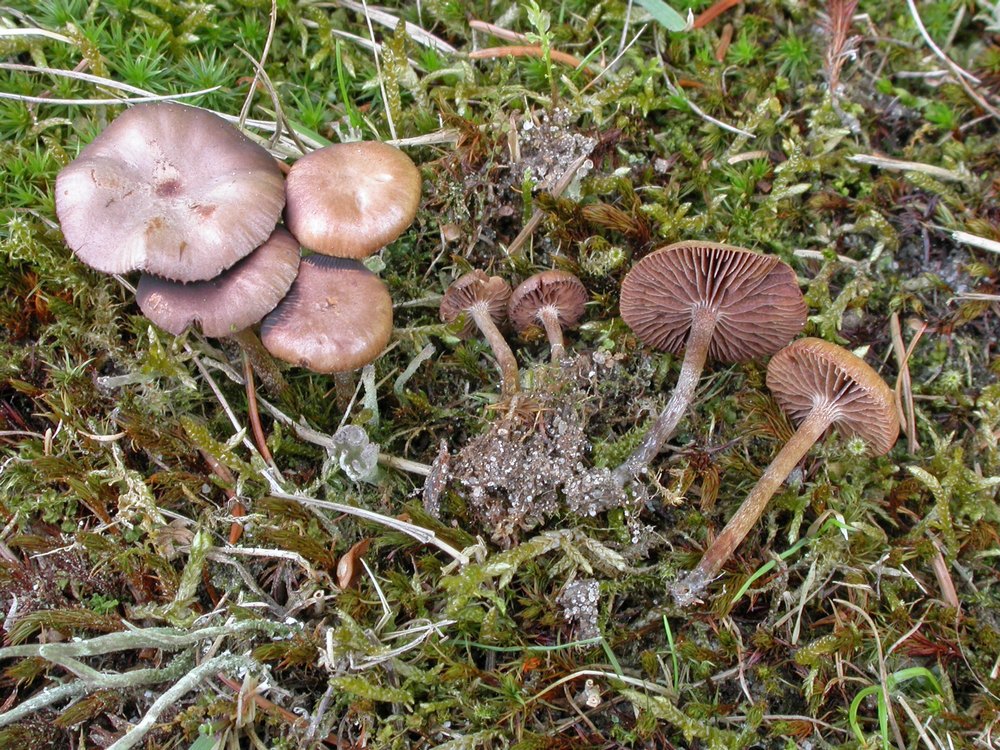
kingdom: Fungi
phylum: Basidiomycota
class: Agaricomycetes
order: Agaricales
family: Strophariaceae
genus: Deconica
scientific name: Deconica montana
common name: rødbrun stråhat
